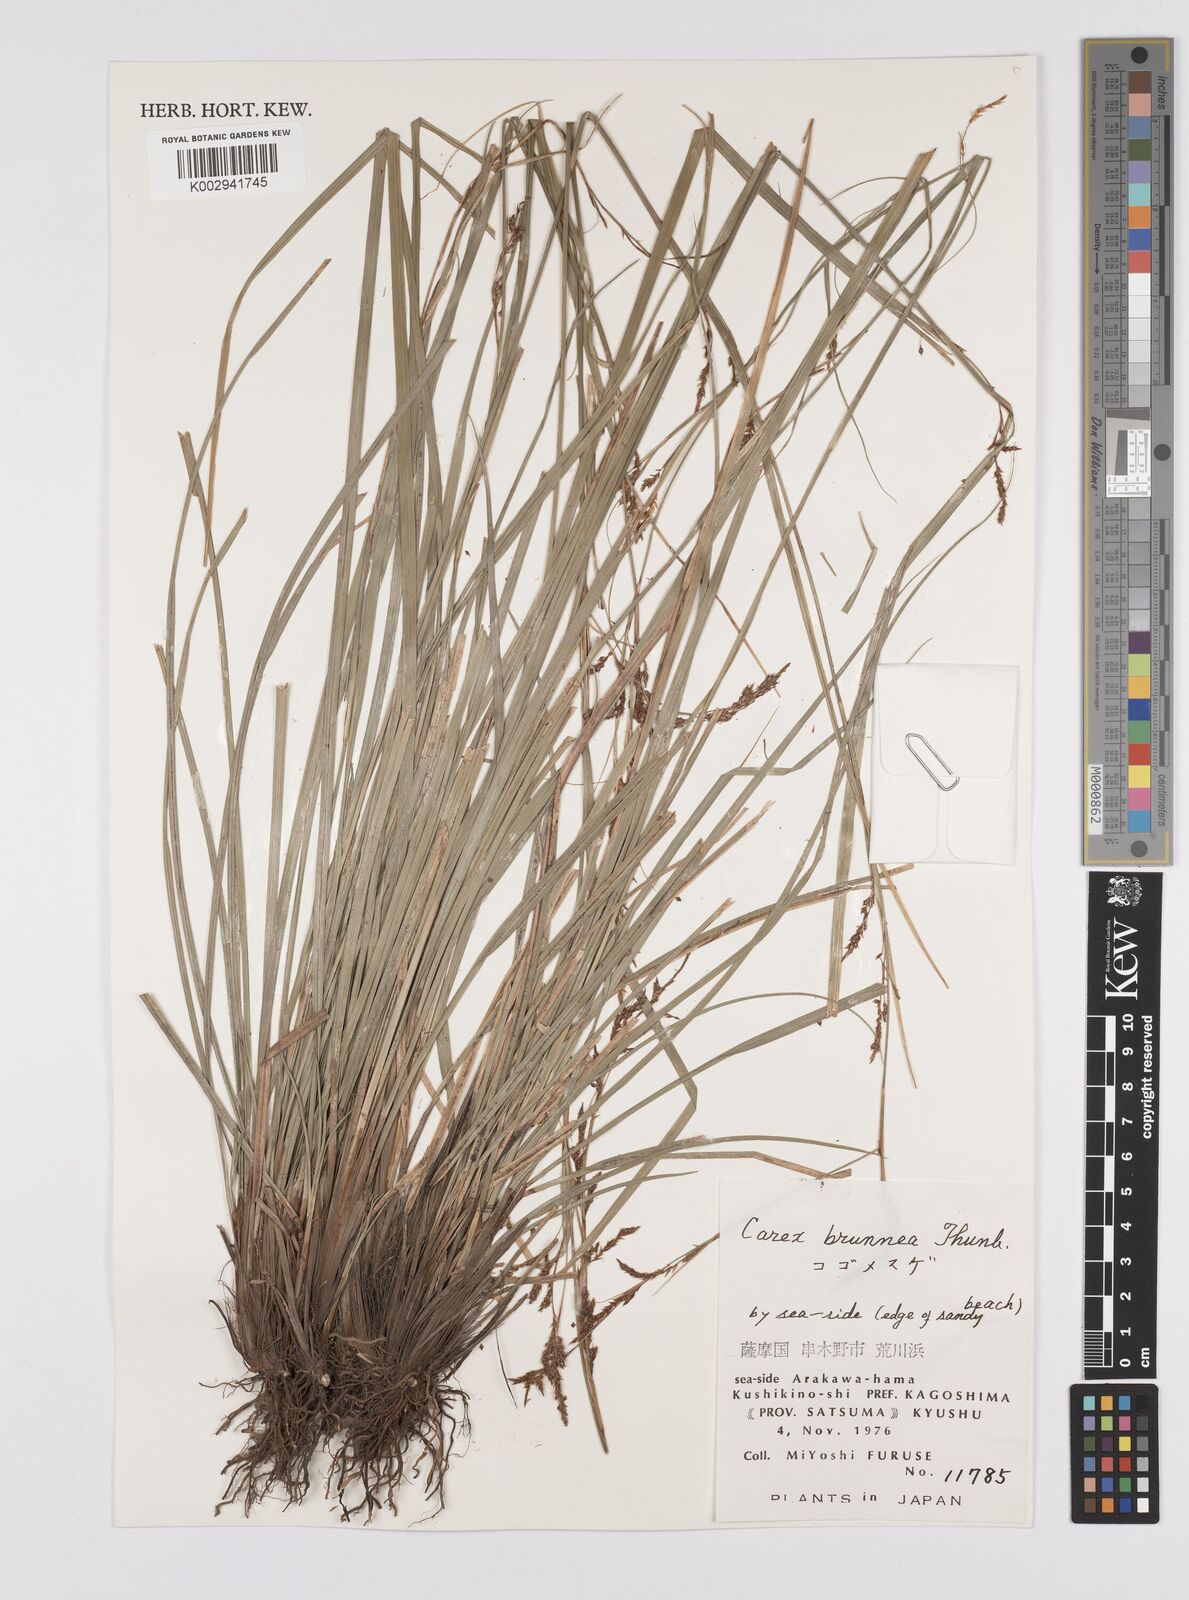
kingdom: Plantae
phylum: Tracheophyta
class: Liliopsida
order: Poales
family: Cyperaceae
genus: Carex
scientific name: Carex brunnea
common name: Greater brown sedge
